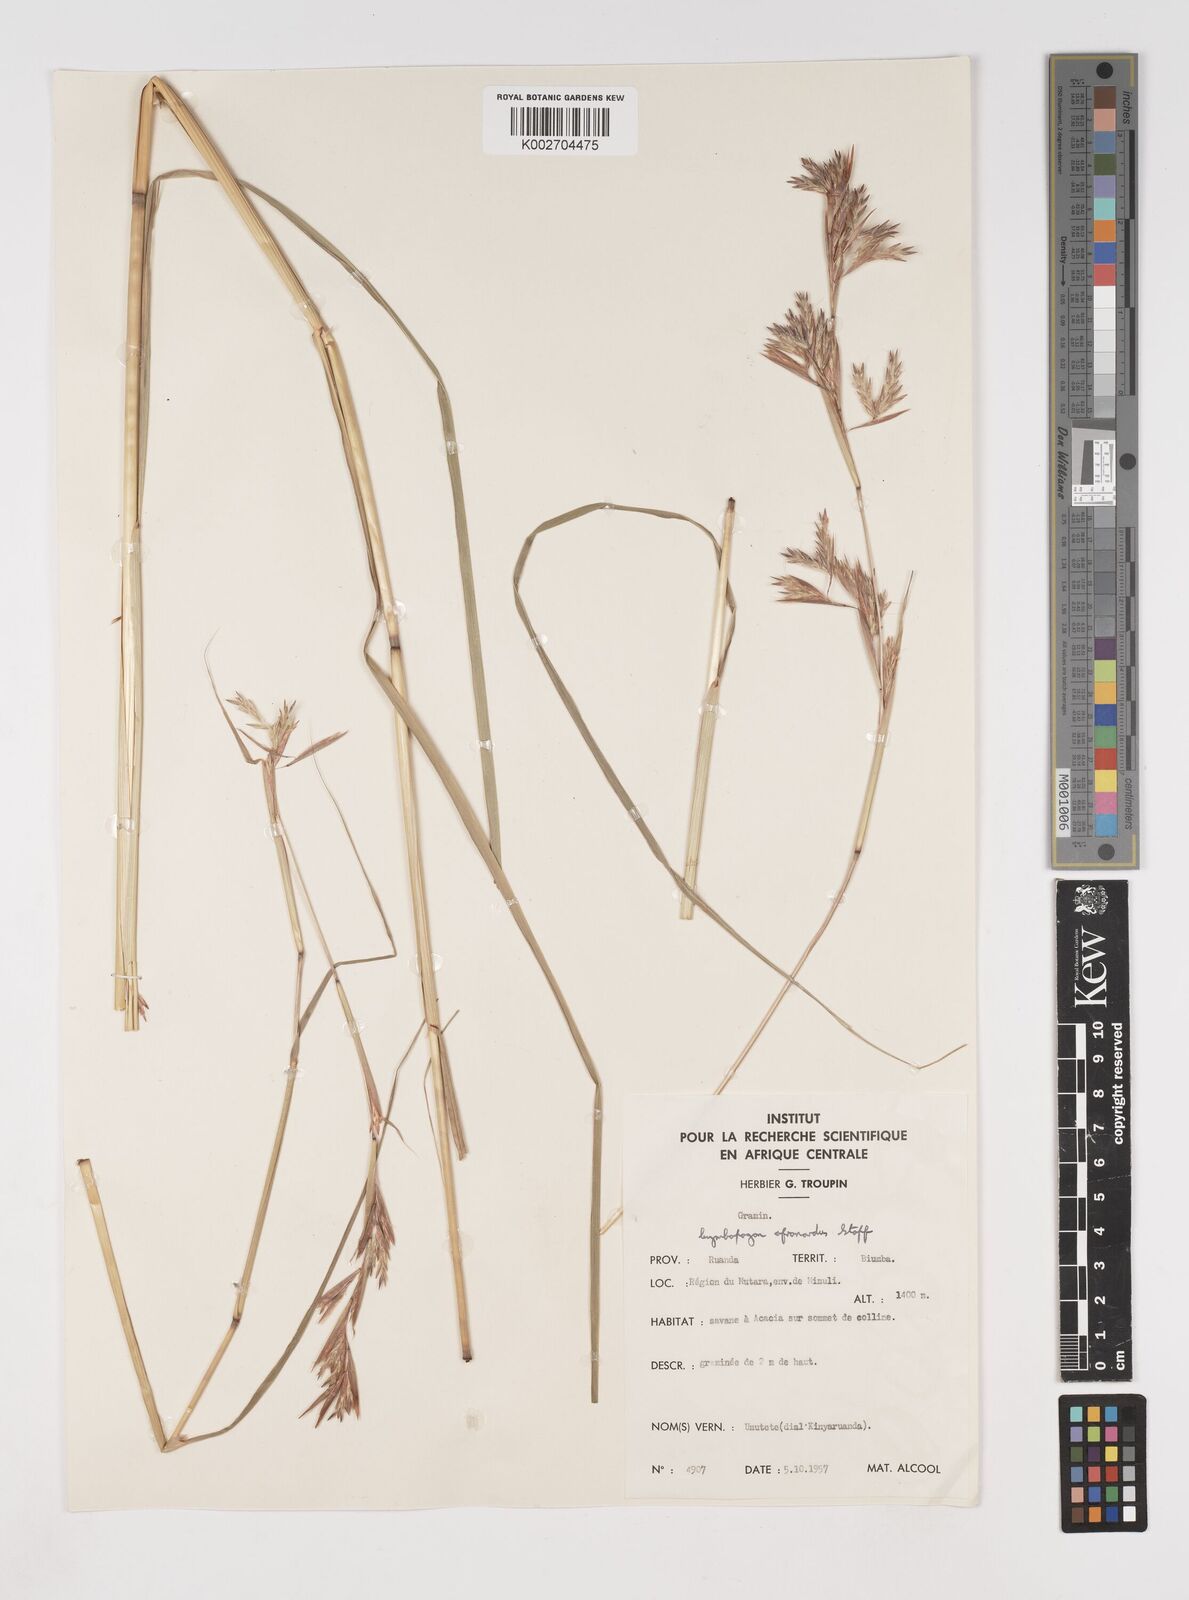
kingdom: Plantae
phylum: Tracheophyta
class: Liliopsida
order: Poales
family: Poaceae
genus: Cymbopogon
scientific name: Cymbopogon nardus
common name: Giant turpentine grass
